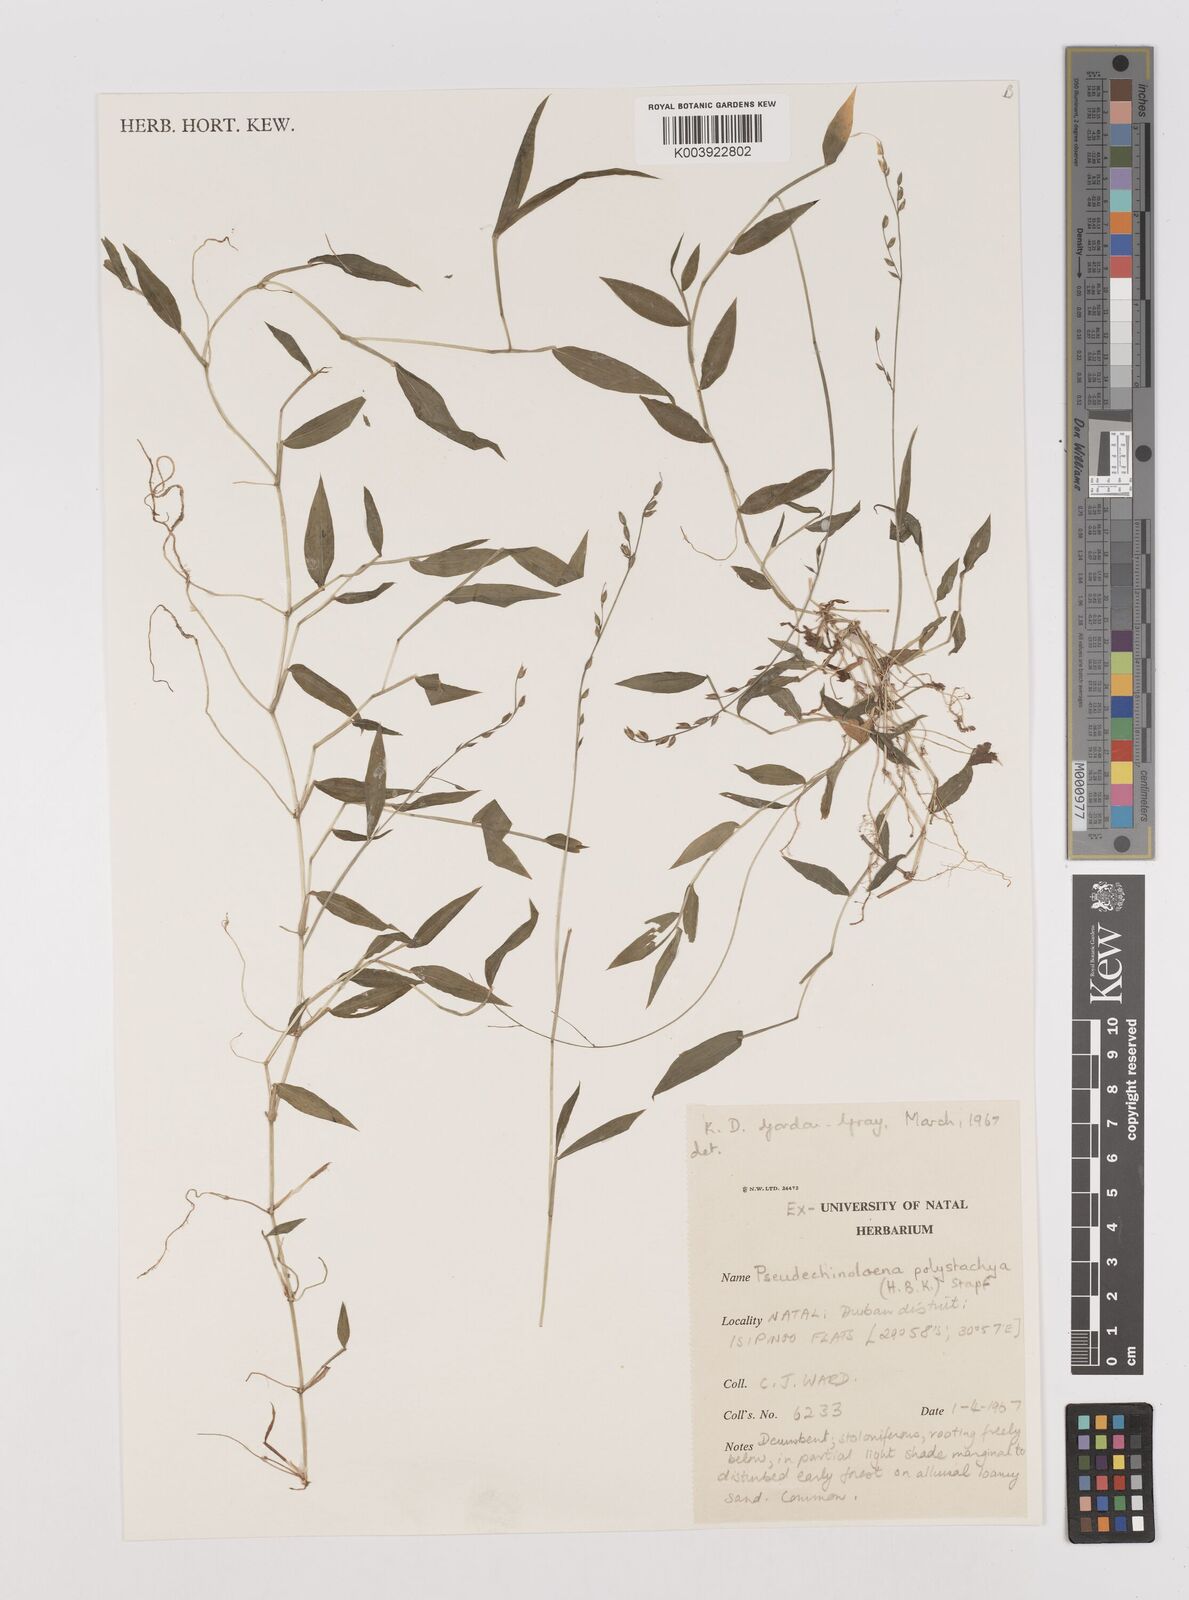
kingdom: Plantae
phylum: Tracheophyta
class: Liliopsida
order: Poales
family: Poaceae
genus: Pseudechinolaena
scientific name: Pseudechinolaena polystachya
